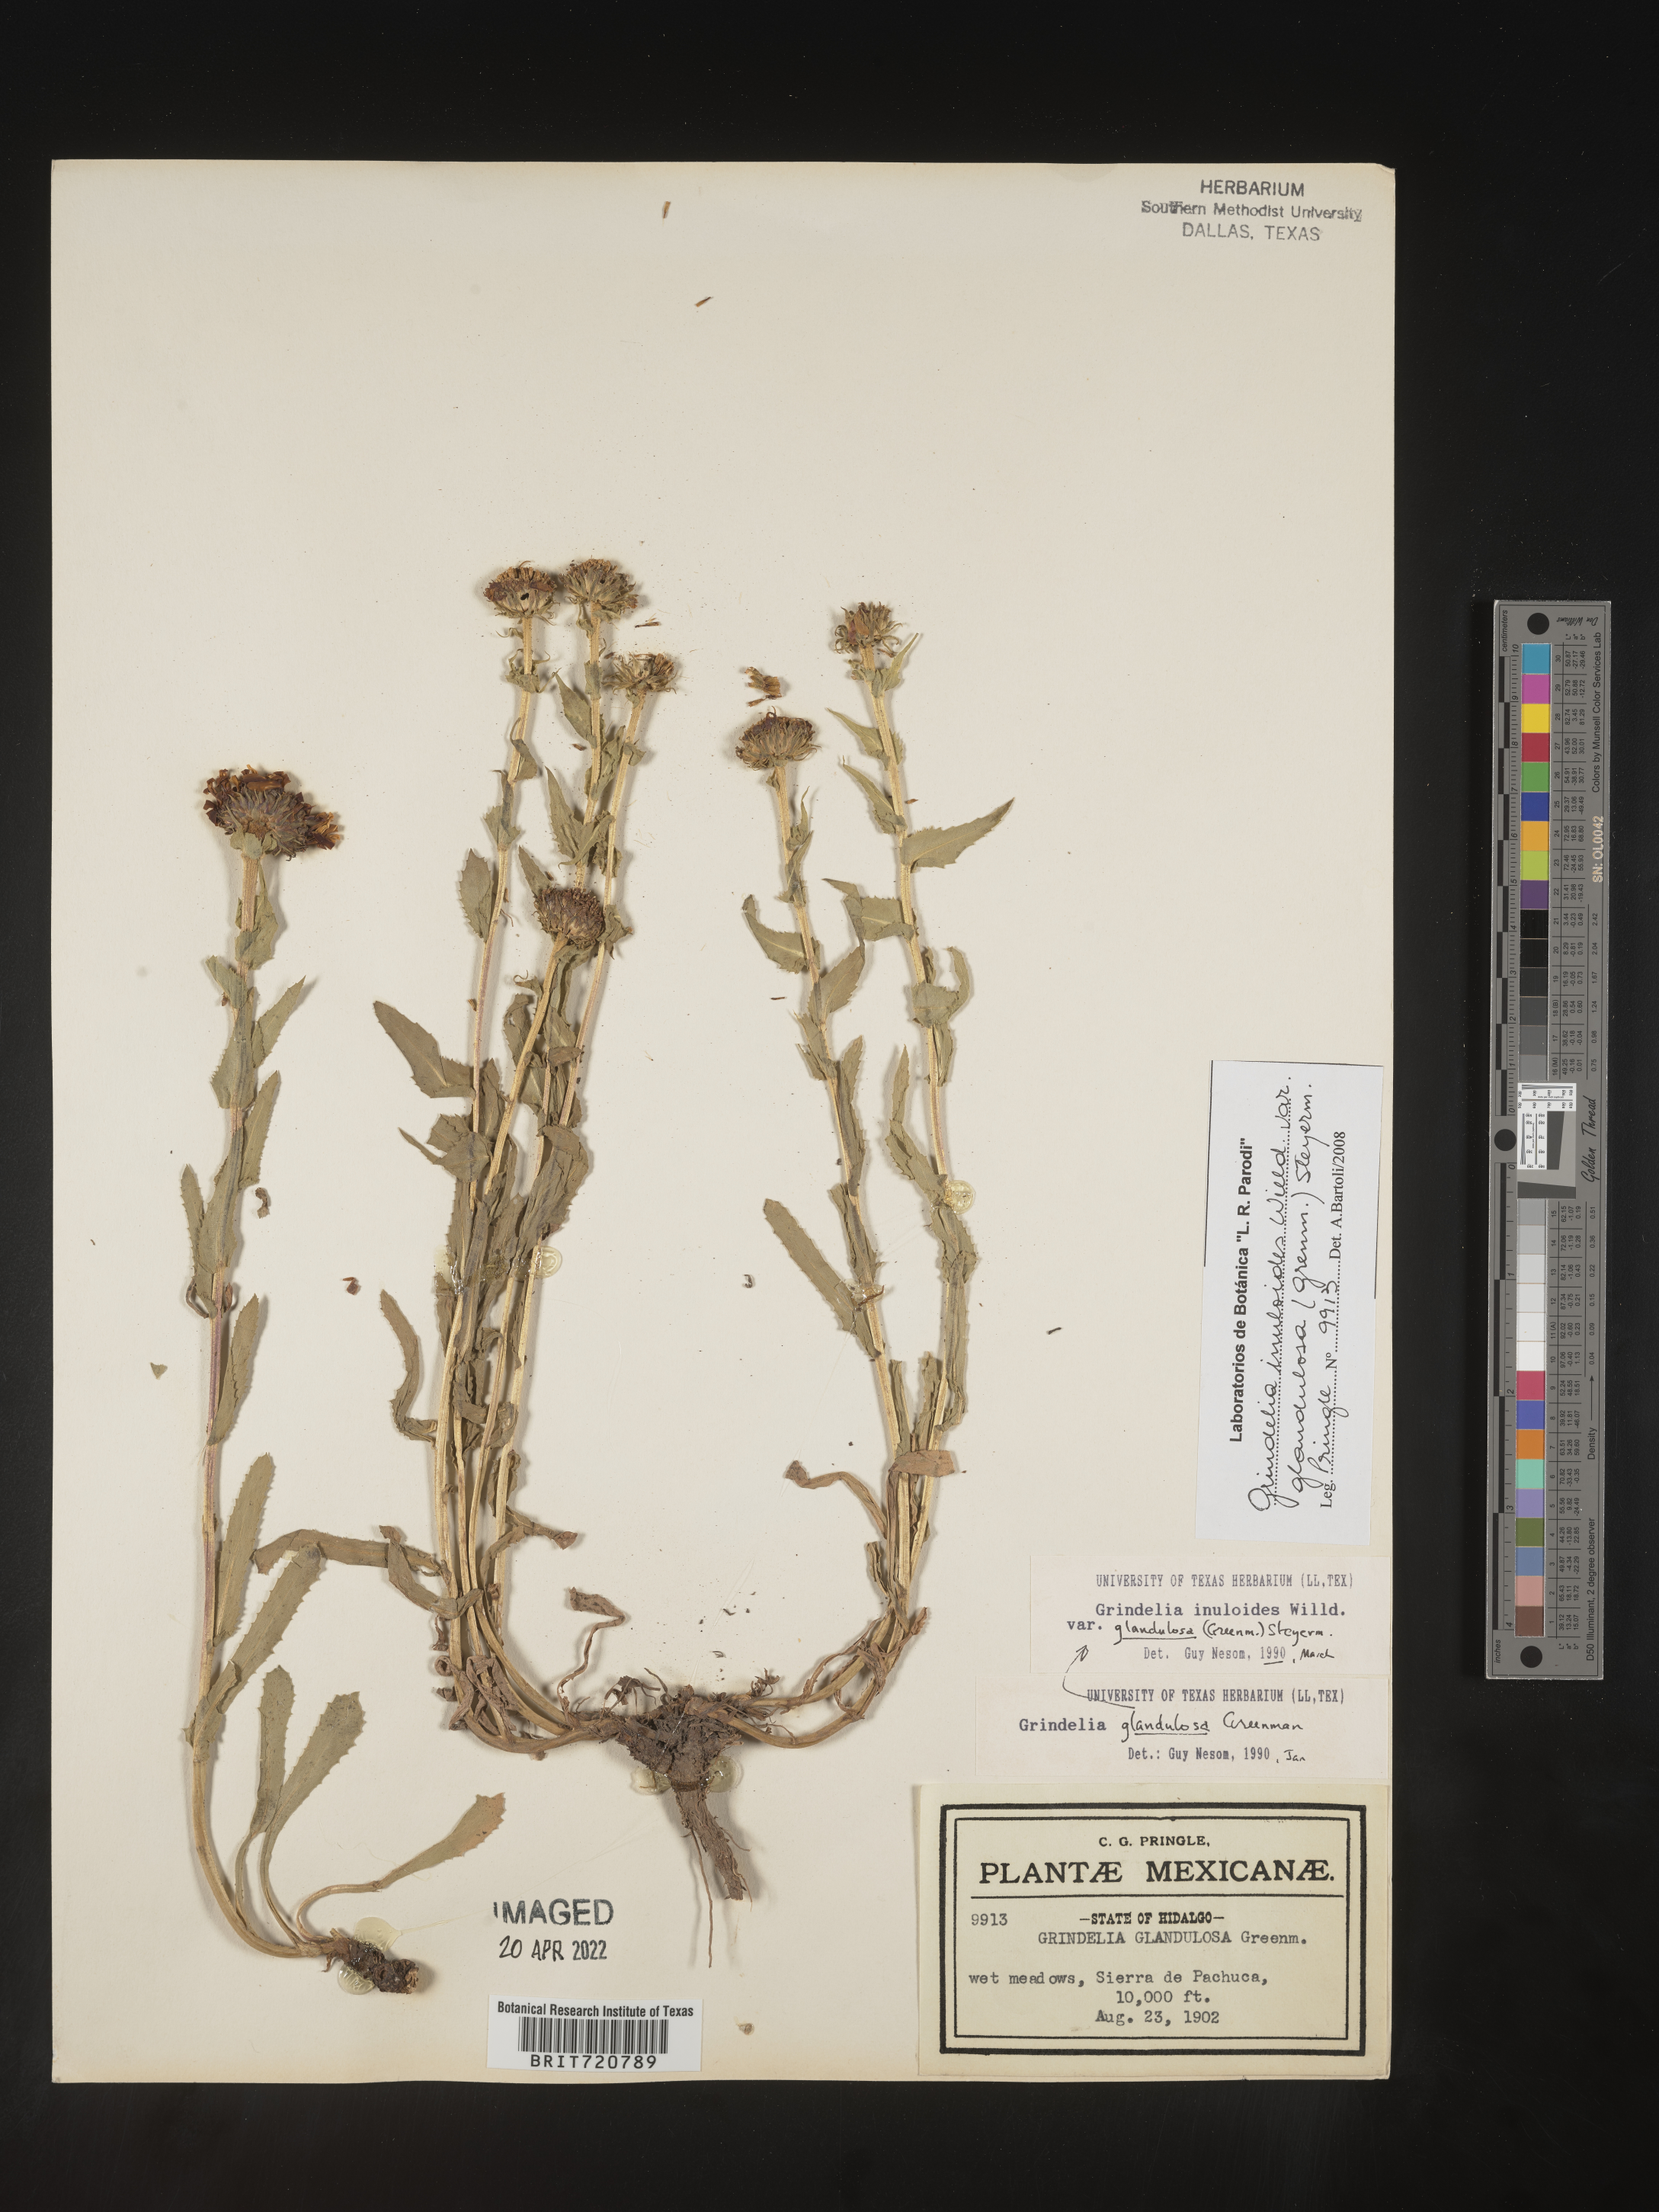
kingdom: Plantae
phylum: Tracheophyta
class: Magnoliopsida
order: Asterales
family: Asteraceae
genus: Grindelia
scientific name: Grindelia
